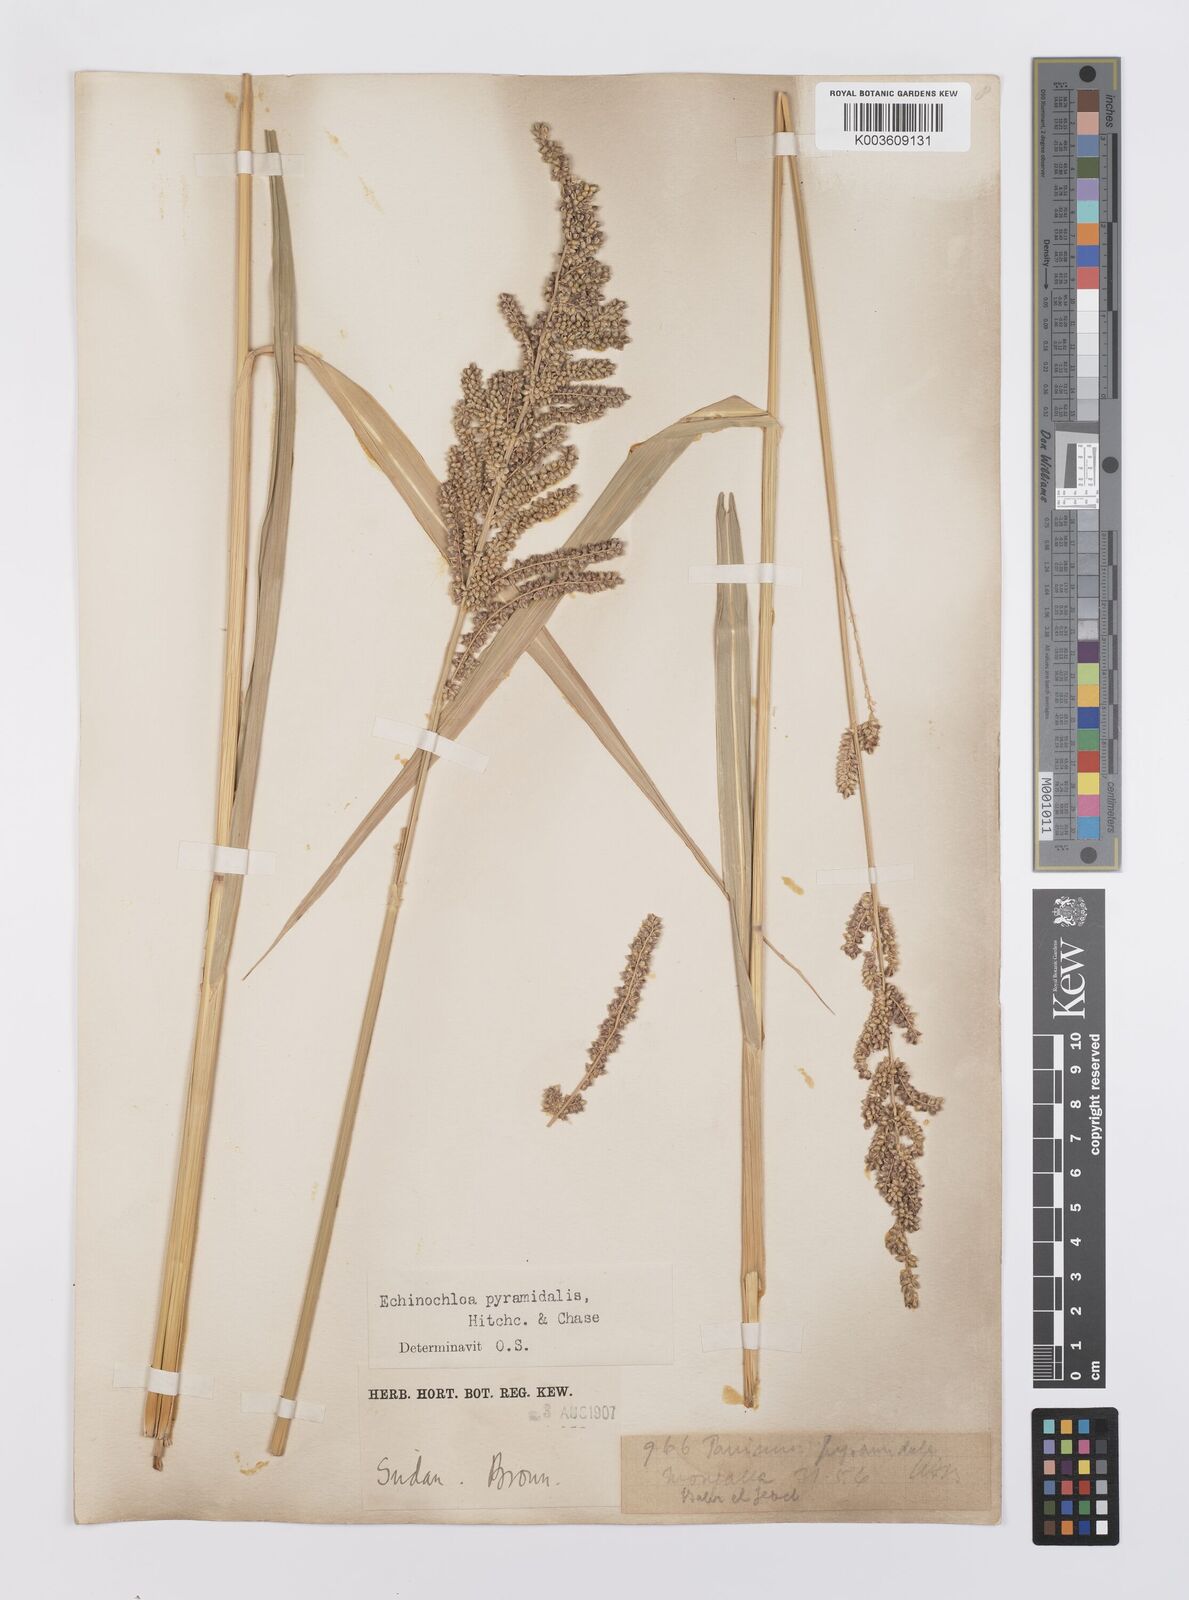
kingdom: Plantae
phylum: Tracheophyta
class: Liliopsida
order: Poales
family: Poaceae
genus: Echinochloa
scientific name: Echinochloa pyramidalis
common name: Antelope grass
